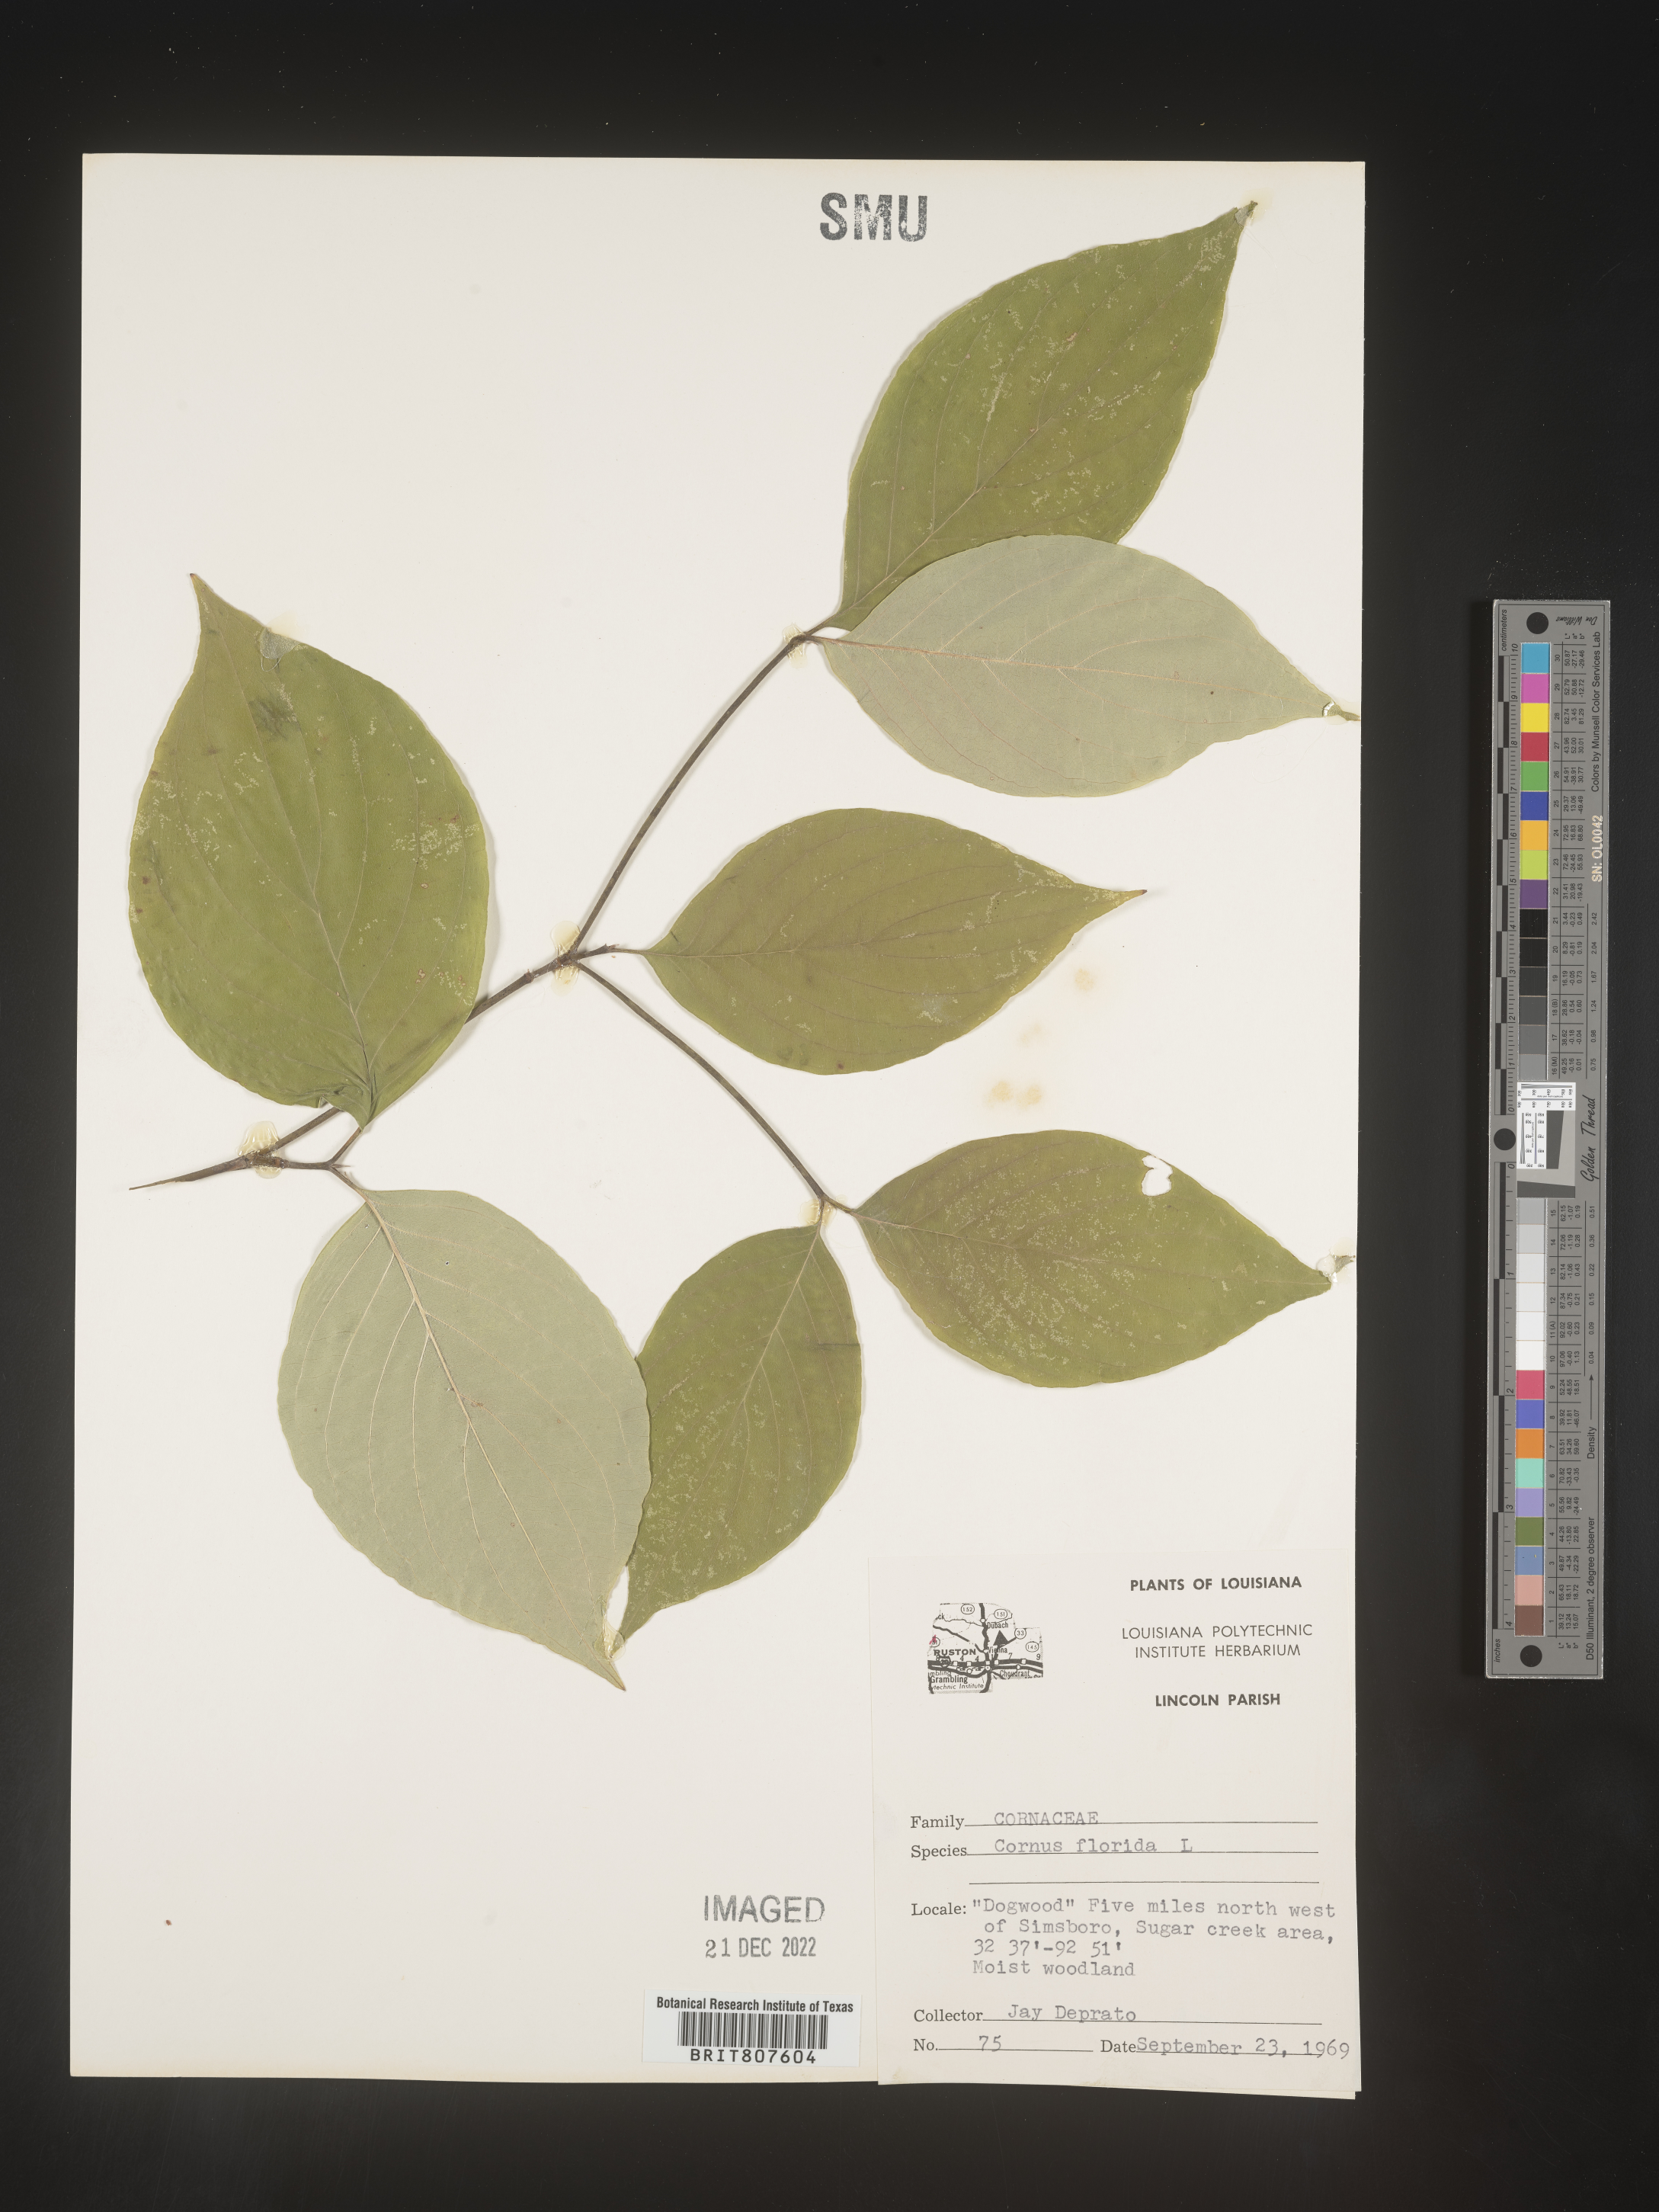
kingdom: Plantae
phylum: Tracheophyta
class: Magnoliopsida
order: Cornales
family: Cornaceae
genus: Cornus
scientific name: Cornus florida
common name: Flowering dogwood
